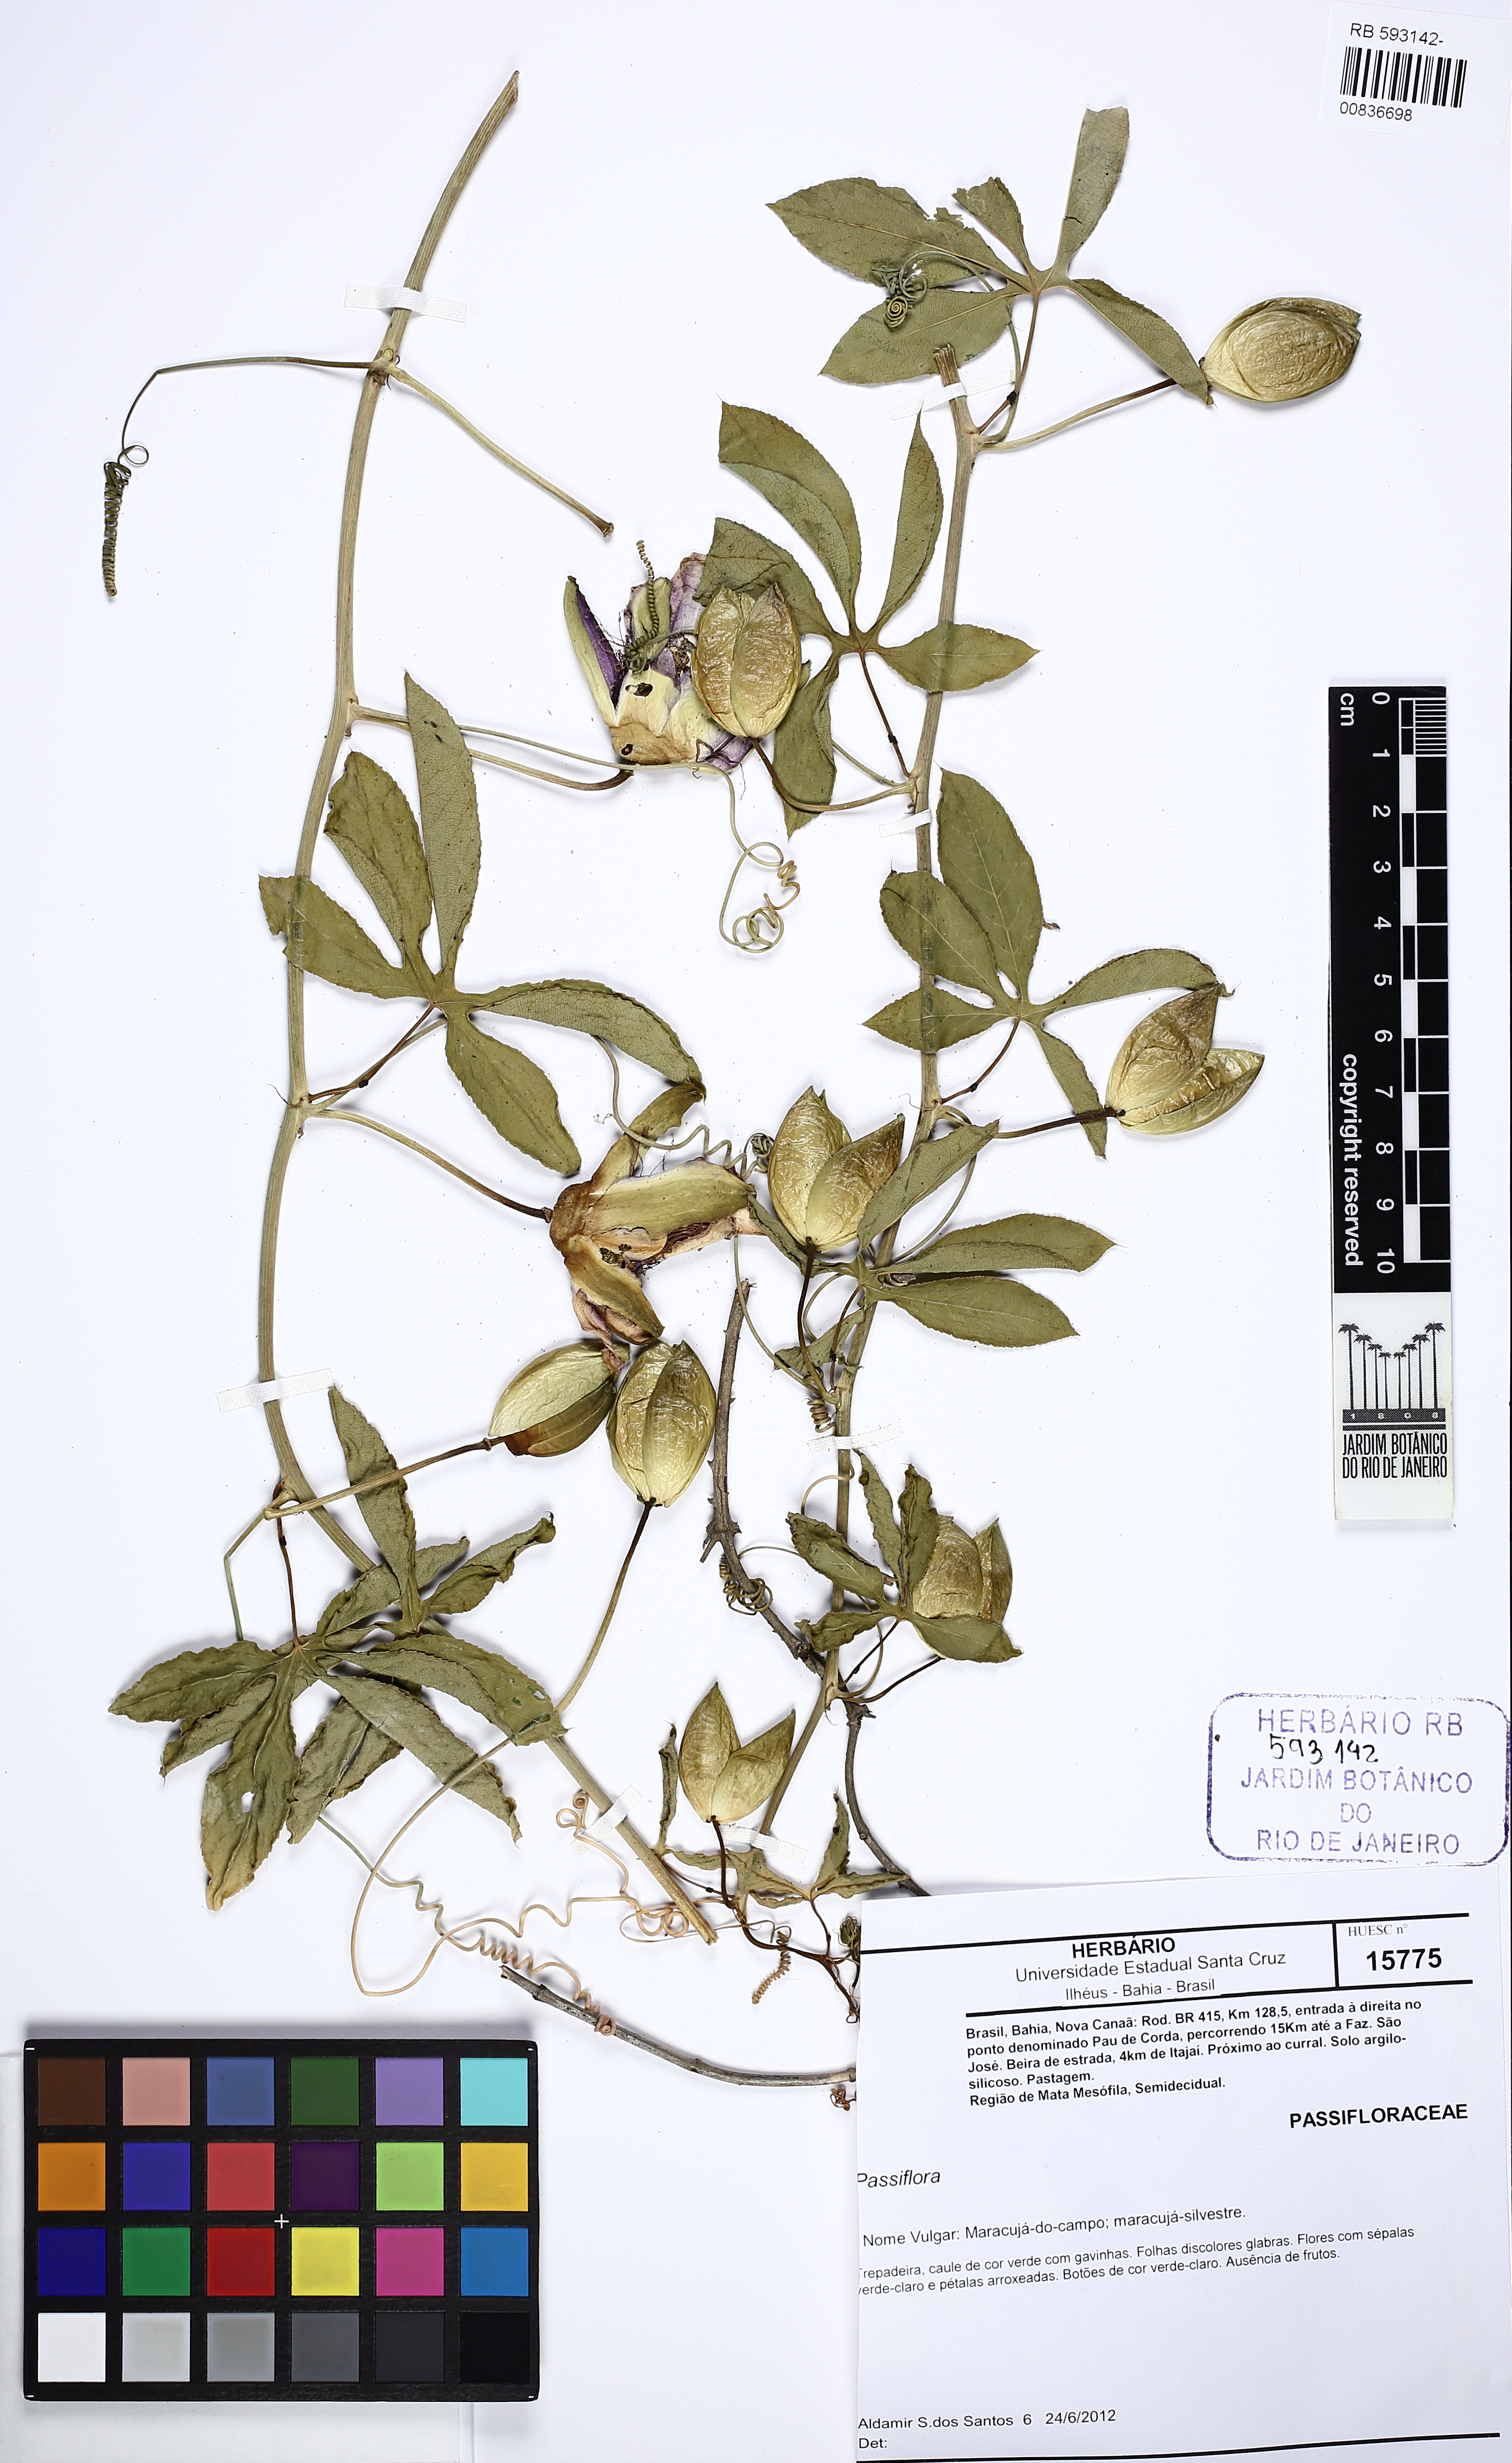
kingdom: Plantae
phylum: Tracheophyta
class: Magnoliopsida
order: Malpighiales
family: Passifloraceae
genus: Passiflora
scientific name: Passiflora cincinnata
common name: Crato passionvine
